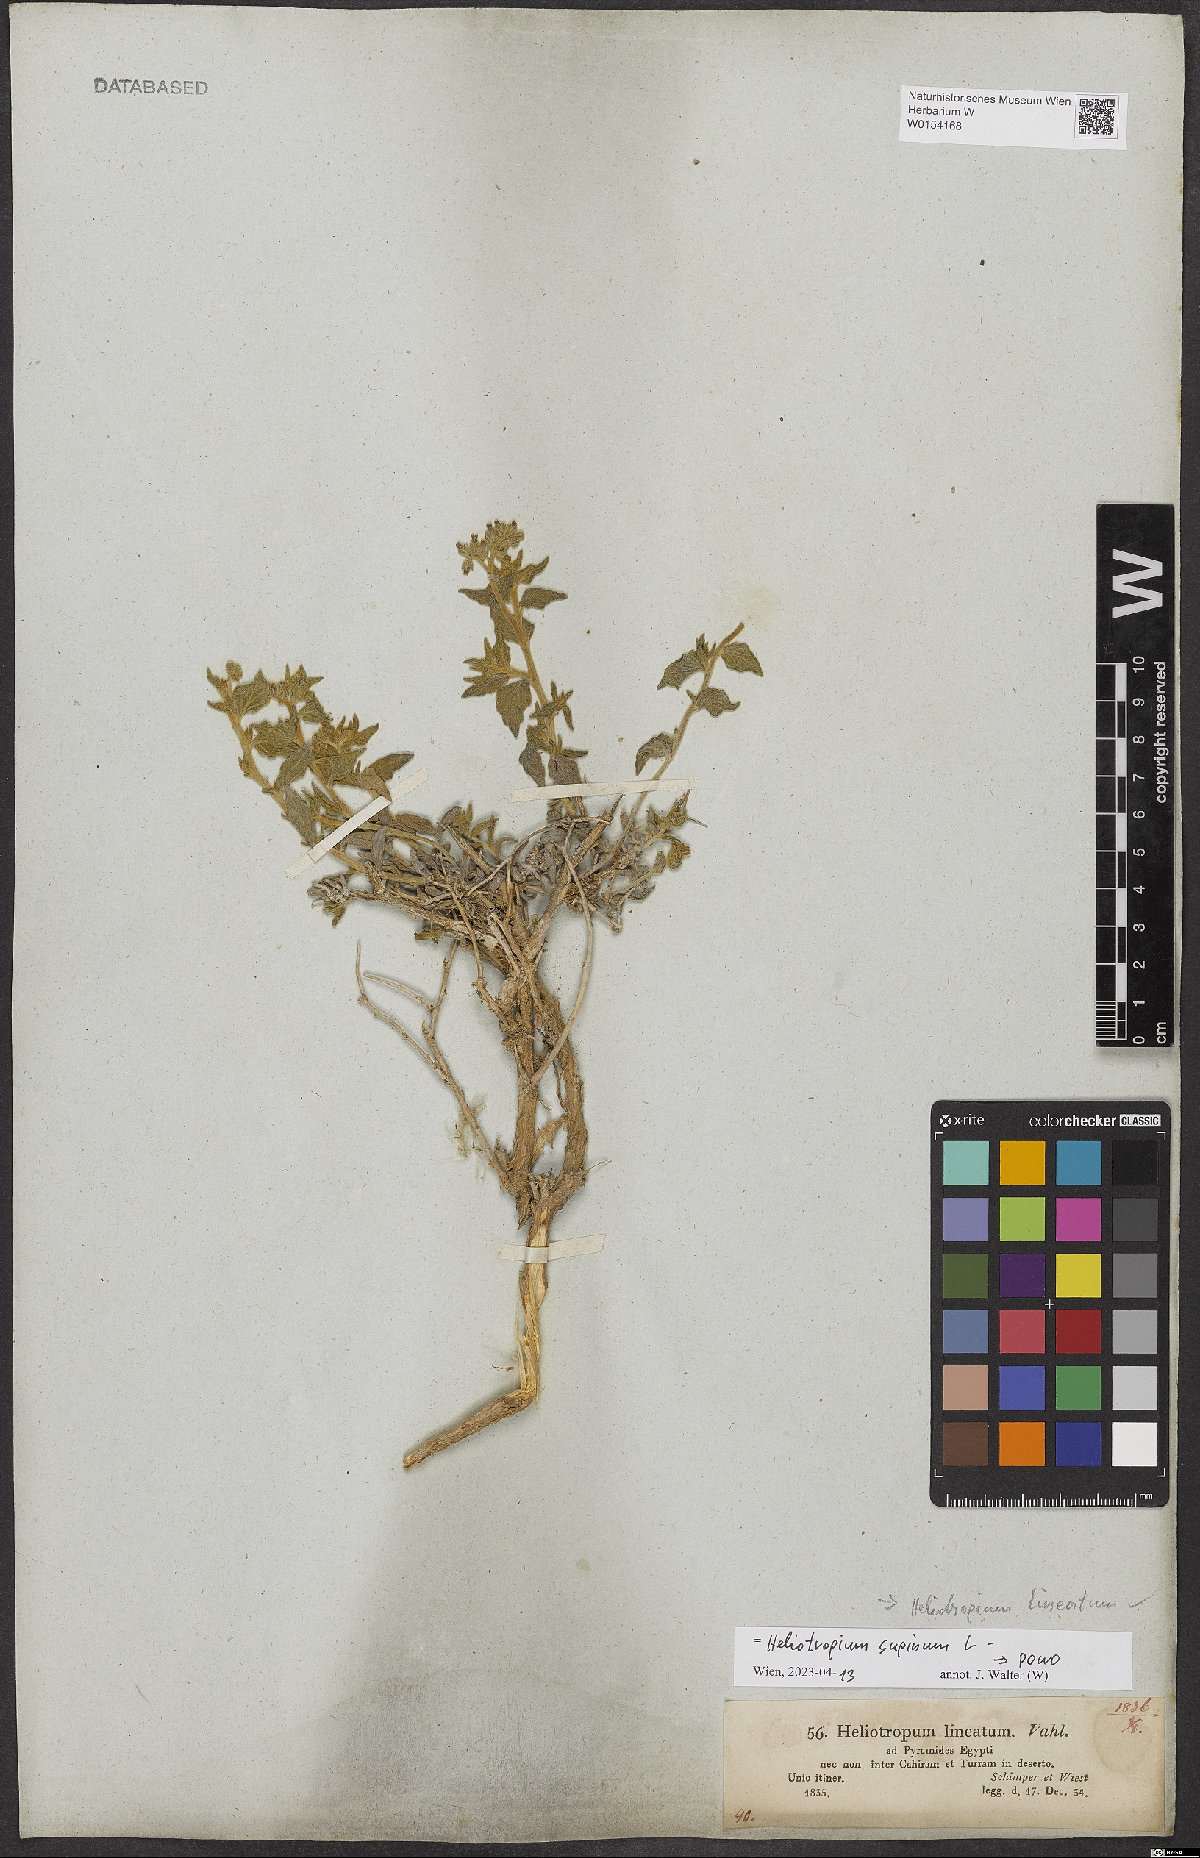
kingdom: Plantae
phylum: Tracheophyta
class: Magnoliopsida
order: Boraginales
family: Heliotropiaceae
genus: Heliotropium
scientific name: Heliotropium supinum
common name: Dwarf heliotrope
